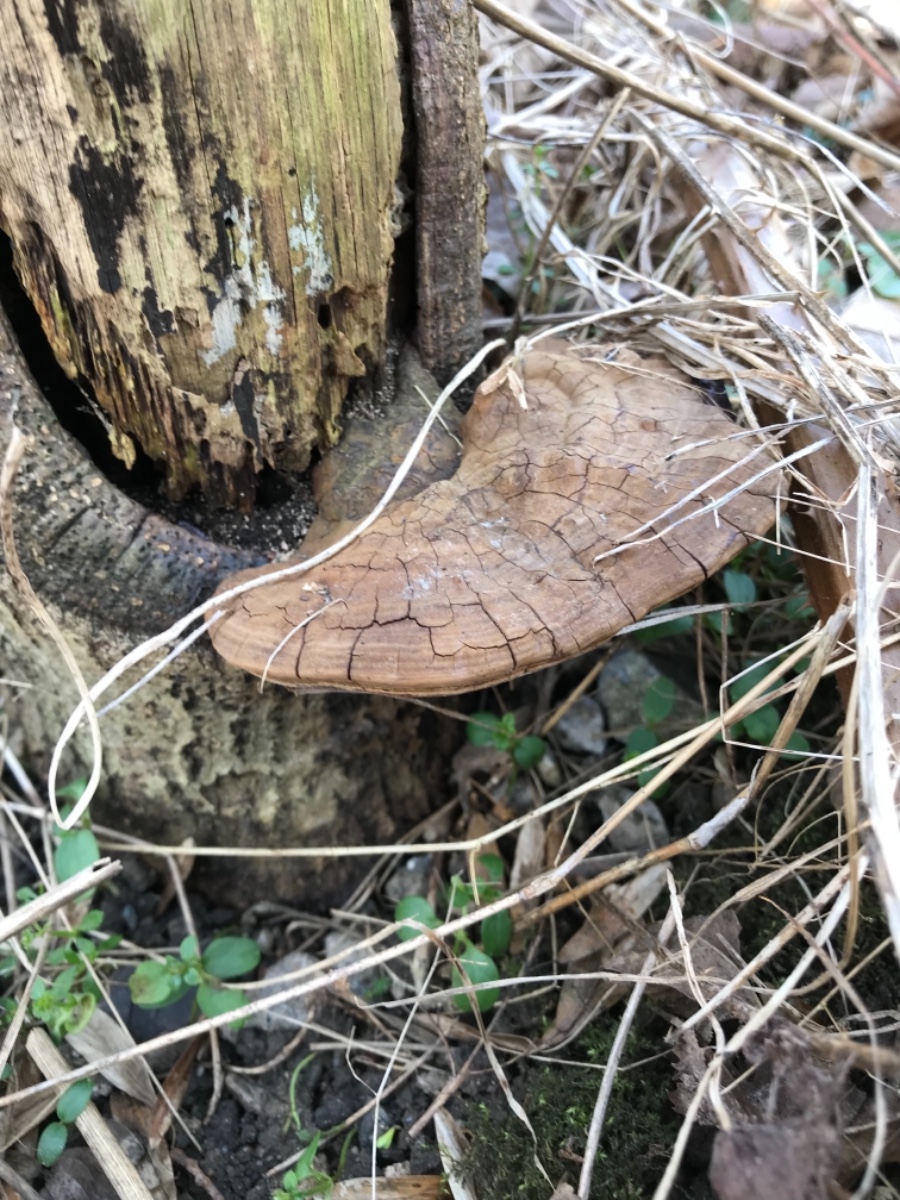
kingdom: Fungi
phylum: Basidiomycota
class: Agaricomycetes
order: Polyporales
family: Polyporaceae
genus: Ganoderma
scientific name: Ganoderma applanatum
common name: flad lakporesvamp
